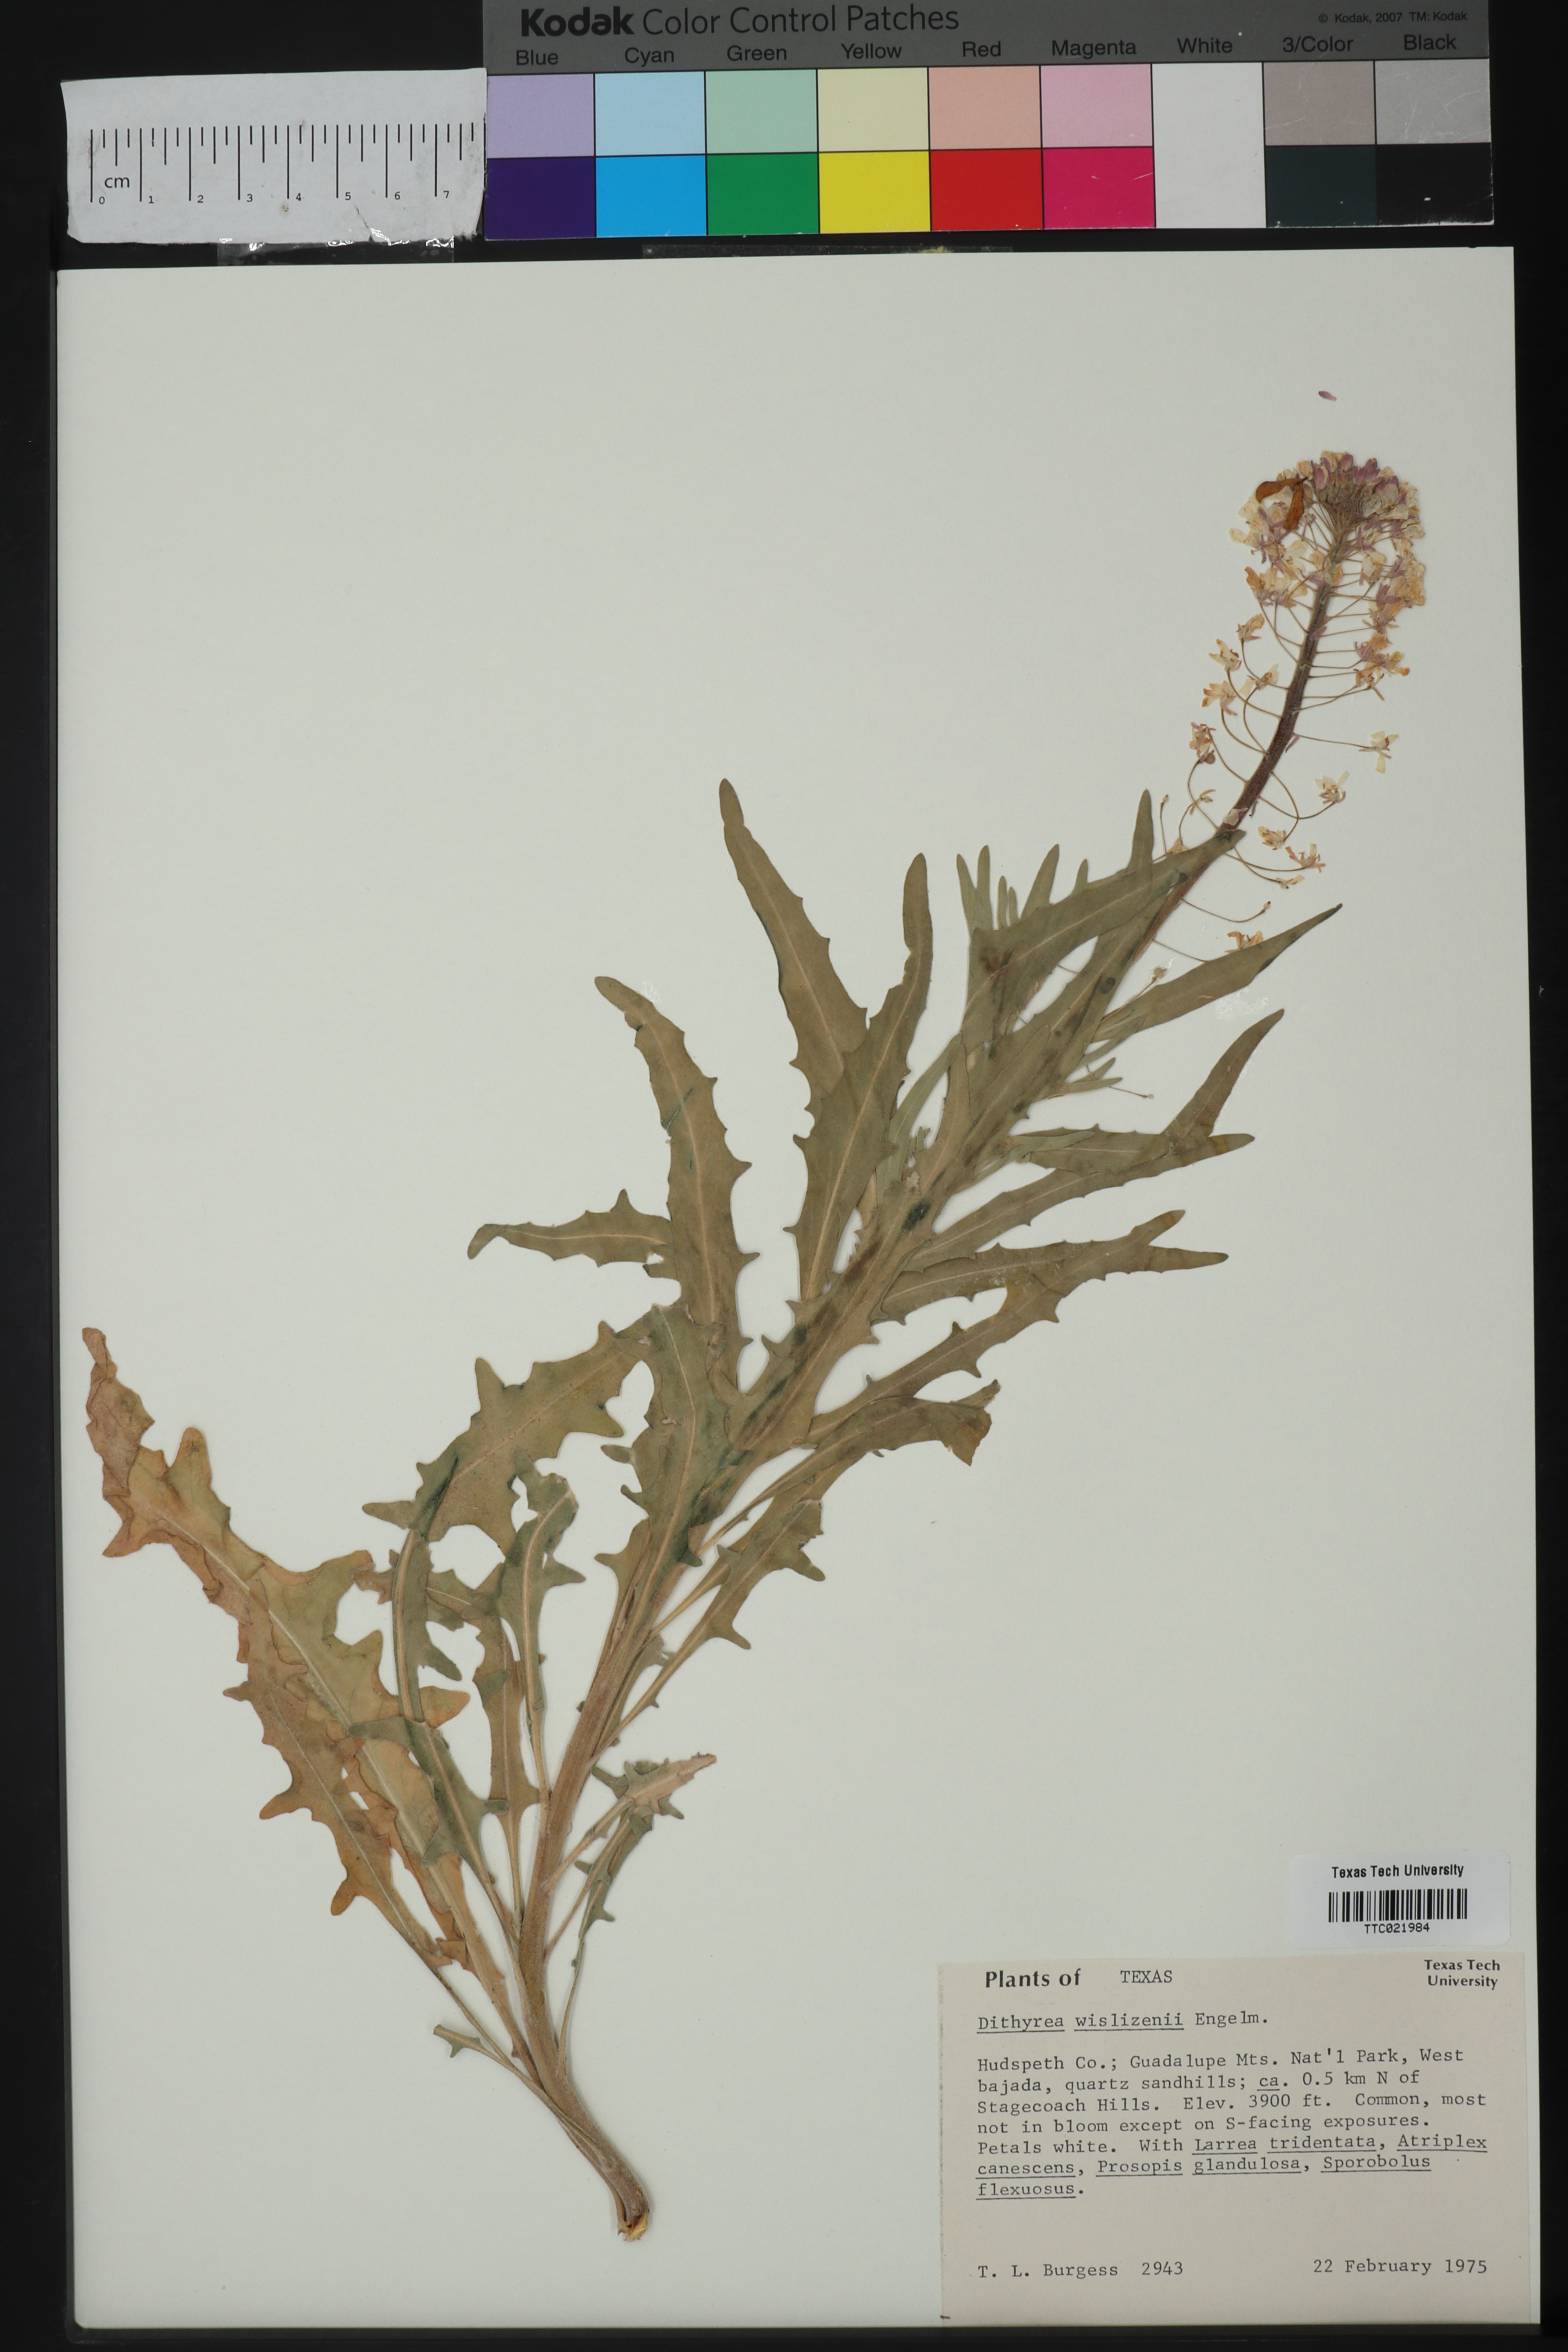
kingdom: Plantae
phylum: Tracheophyta
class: Magnoliopsida
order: Brassicales
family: Brassicaceae
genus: Dimorphocarpa
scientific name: Dimorphocarpa wislizenii
